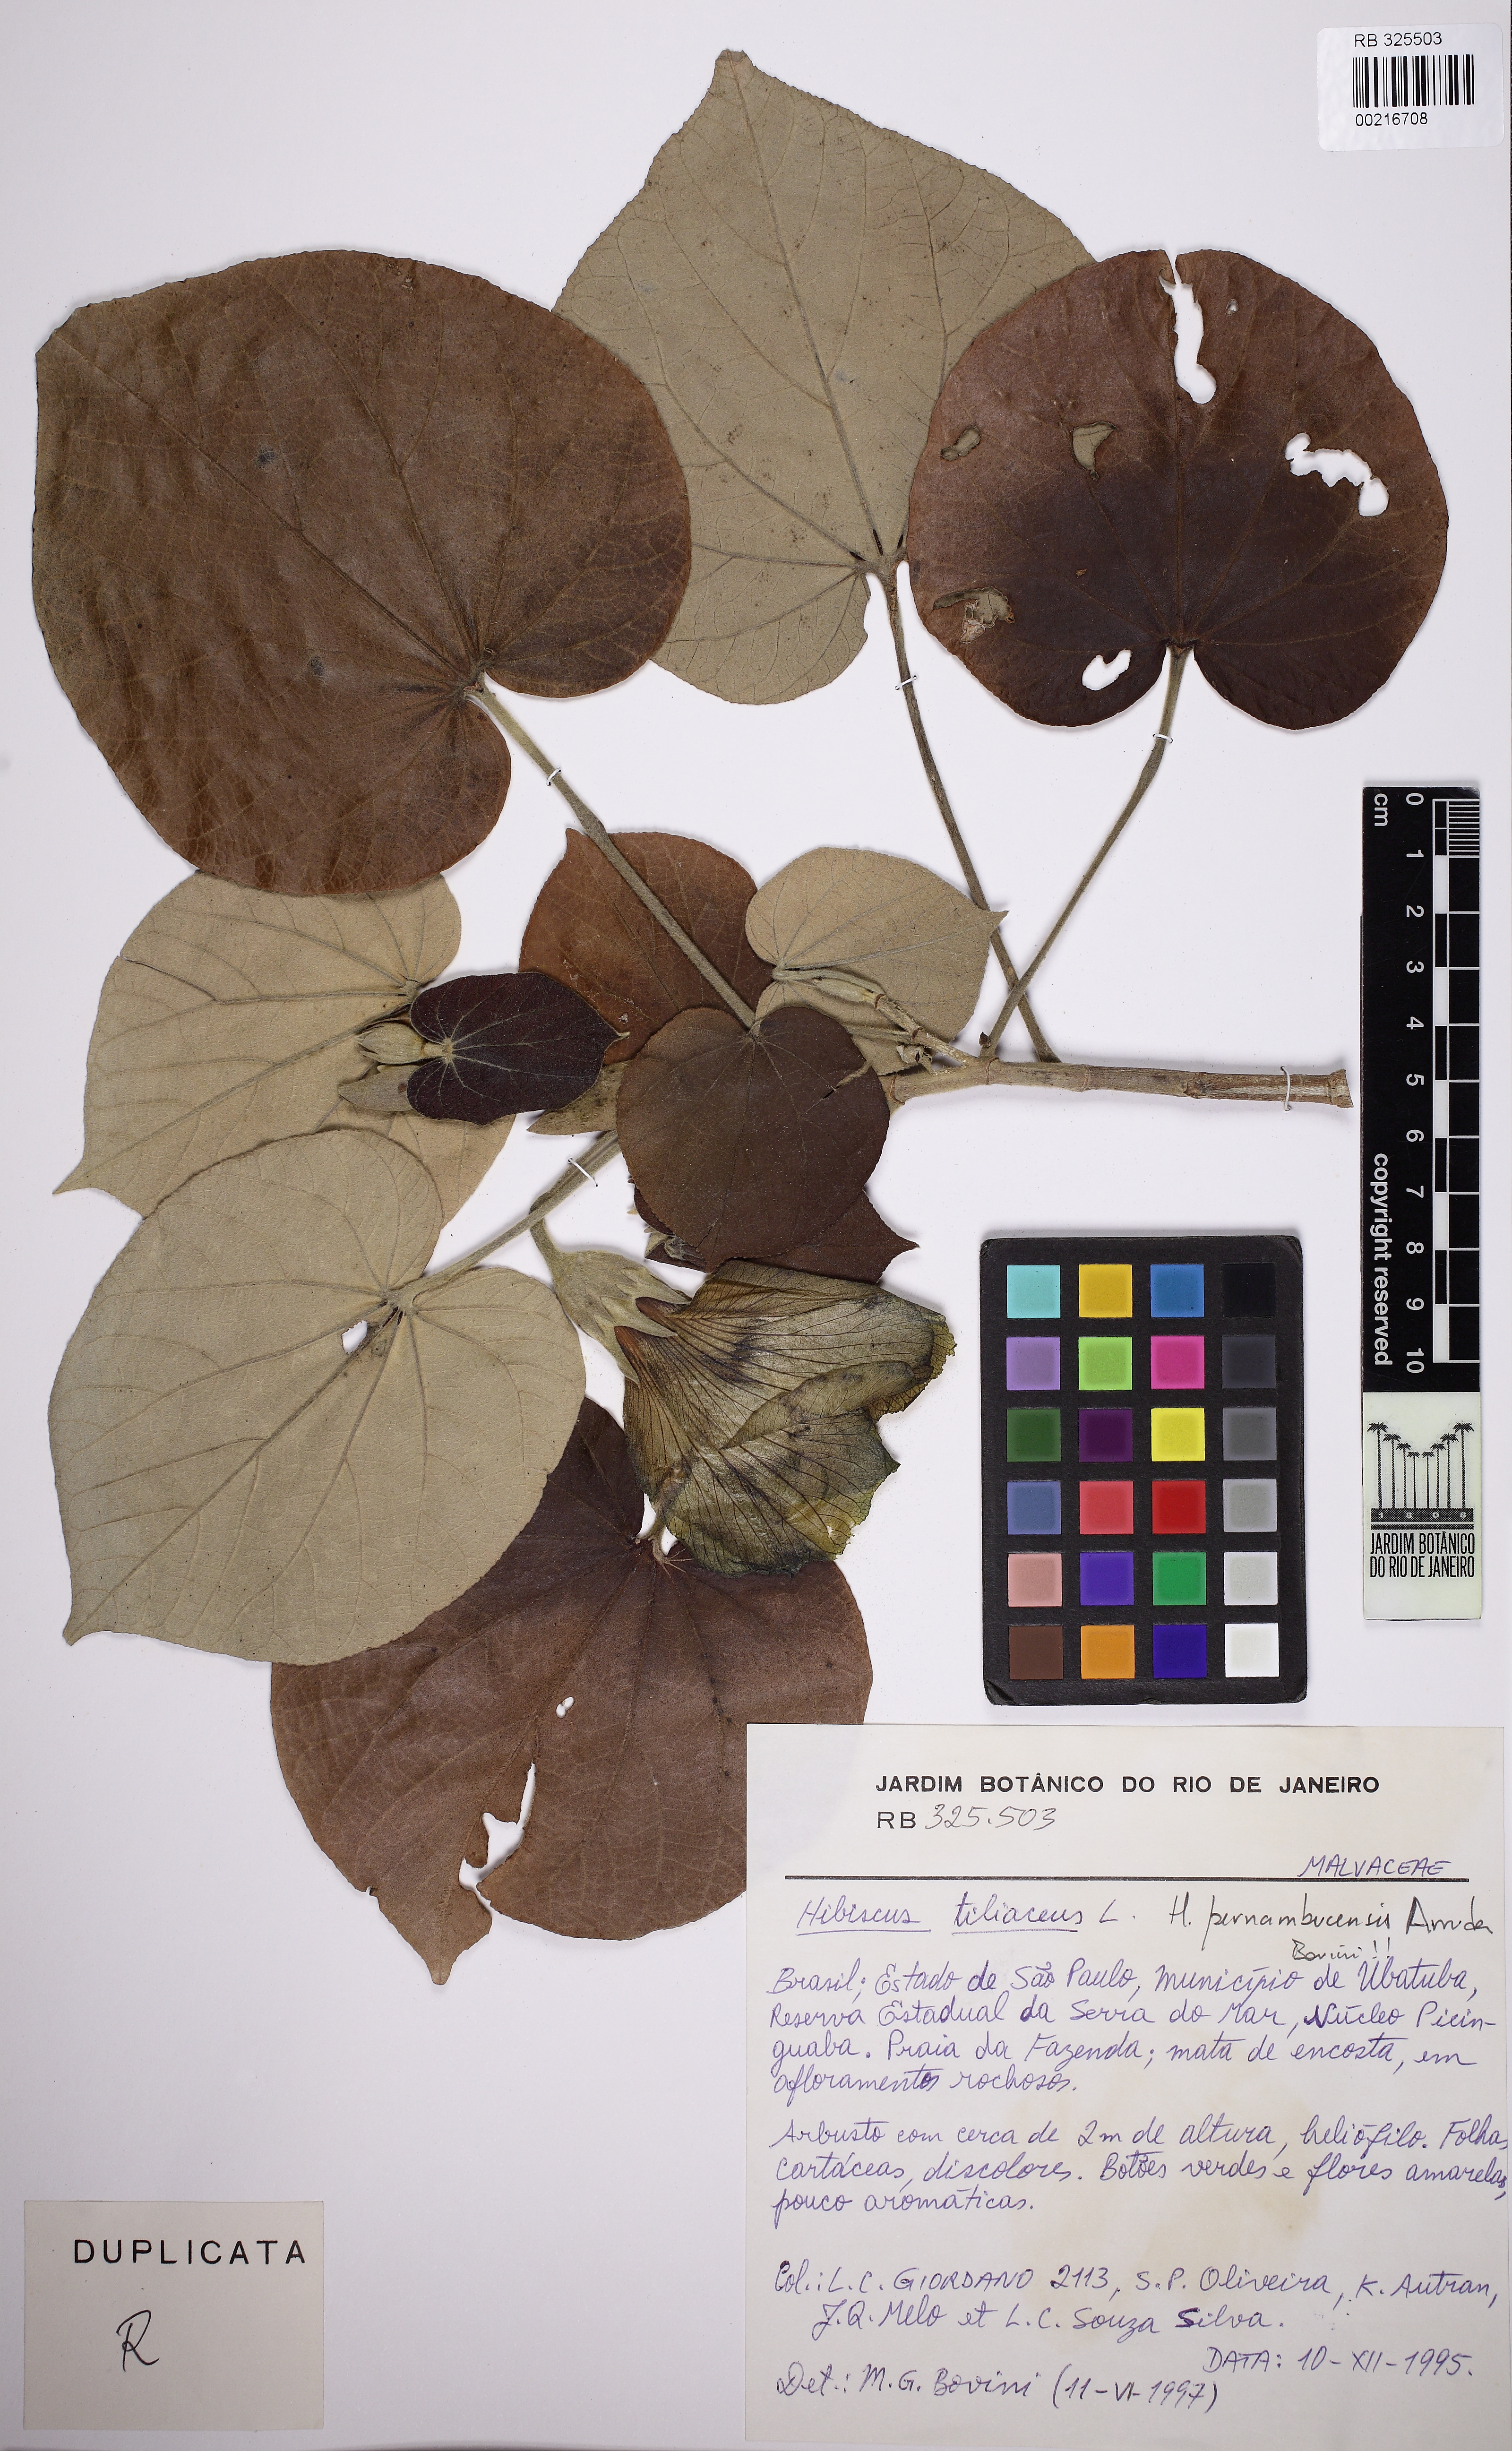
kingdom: Plantae
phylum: Tracheophyta
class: Magnoliopsida
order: Malvales
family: Malvaceae
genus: Talipariti
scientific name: Talipariti pernambucense
